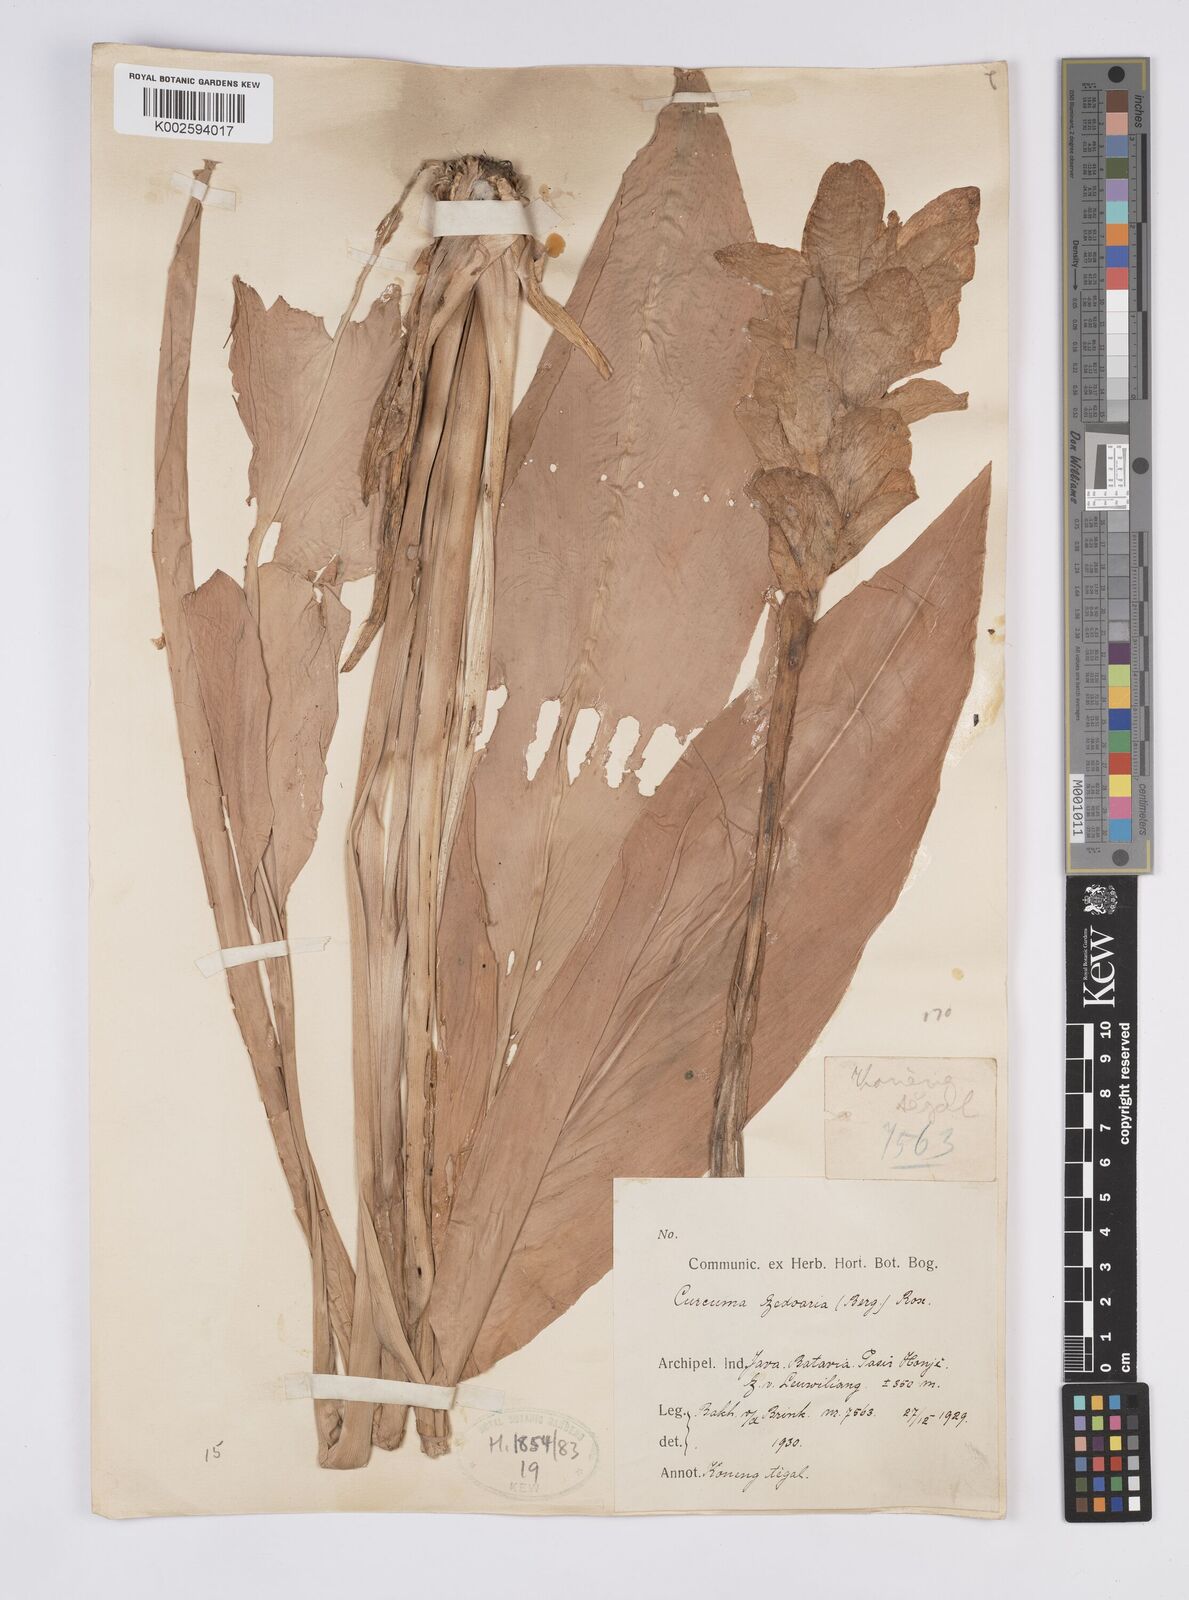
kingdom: Plantae
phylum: Tracheophyta
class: Liliopsida
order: Zingiberales
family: Zingiberaceae
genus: Curcuma
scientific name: Curcuma zedoaria
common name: Zedoary
